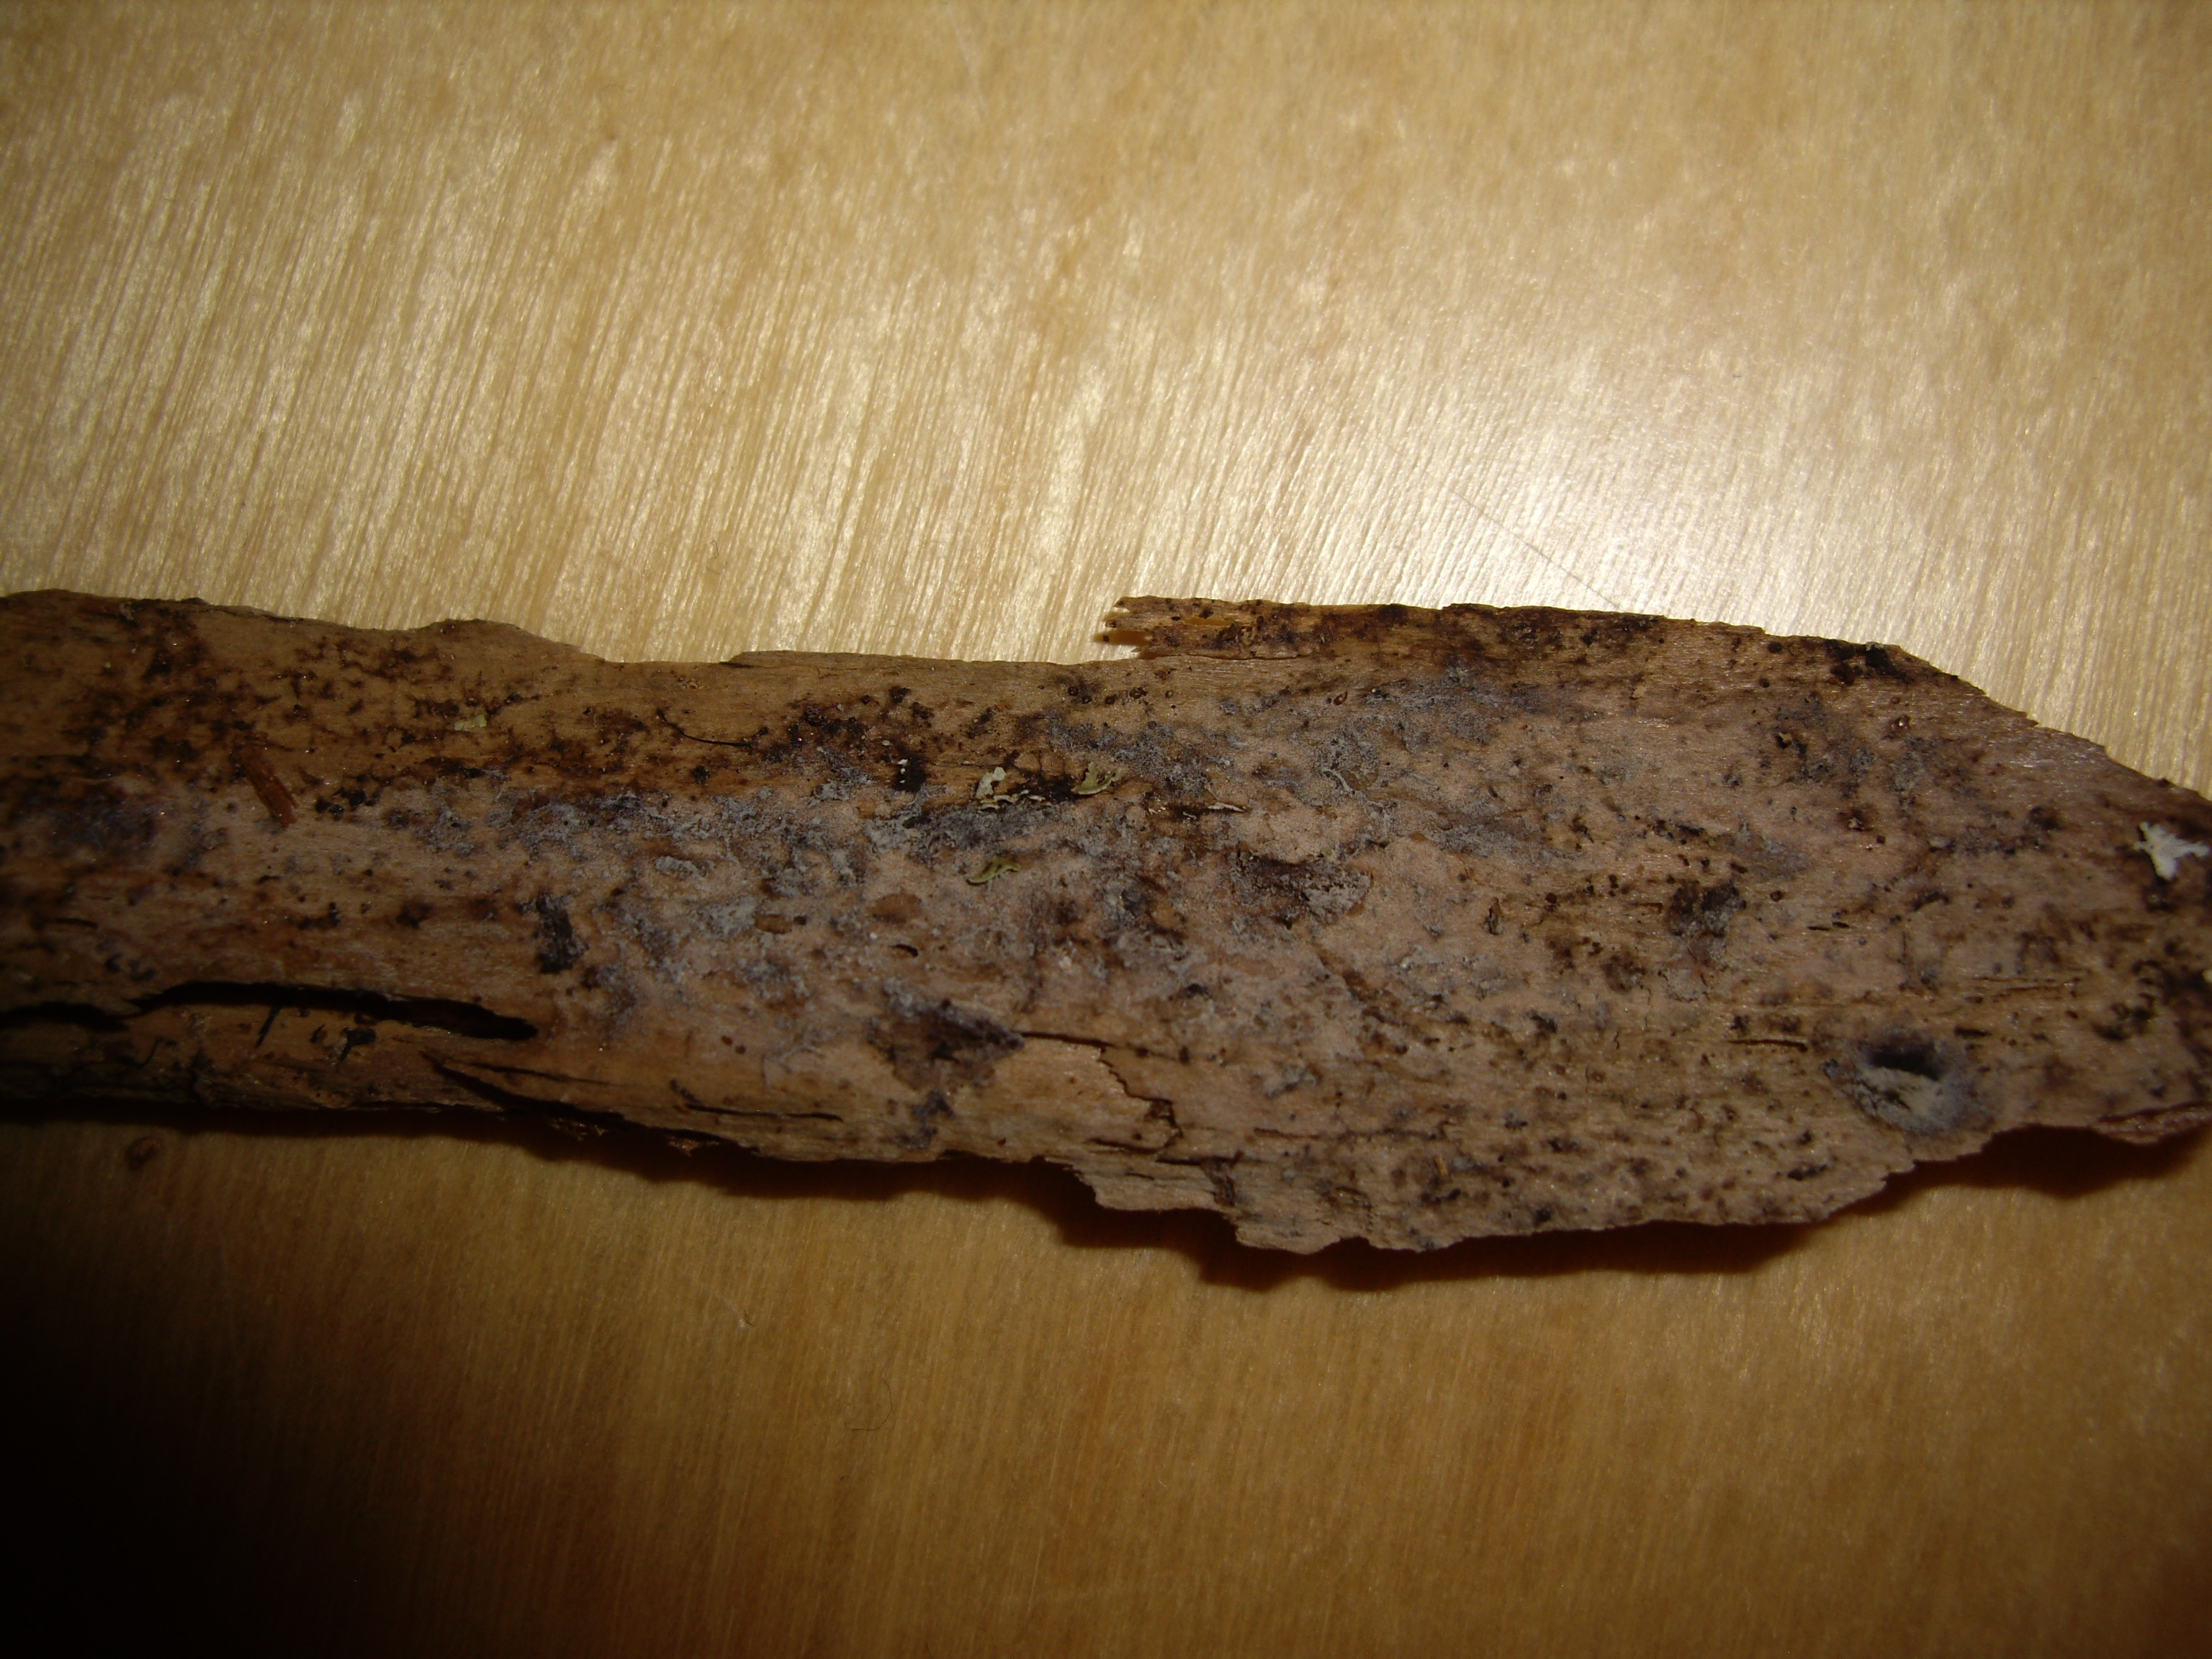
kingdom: Fungi
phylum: Basidiomycota
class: Agaricomycetes
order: Hymenochaetales
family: Rickenellaceae
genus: Atheloderma
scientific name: Atheloderma
